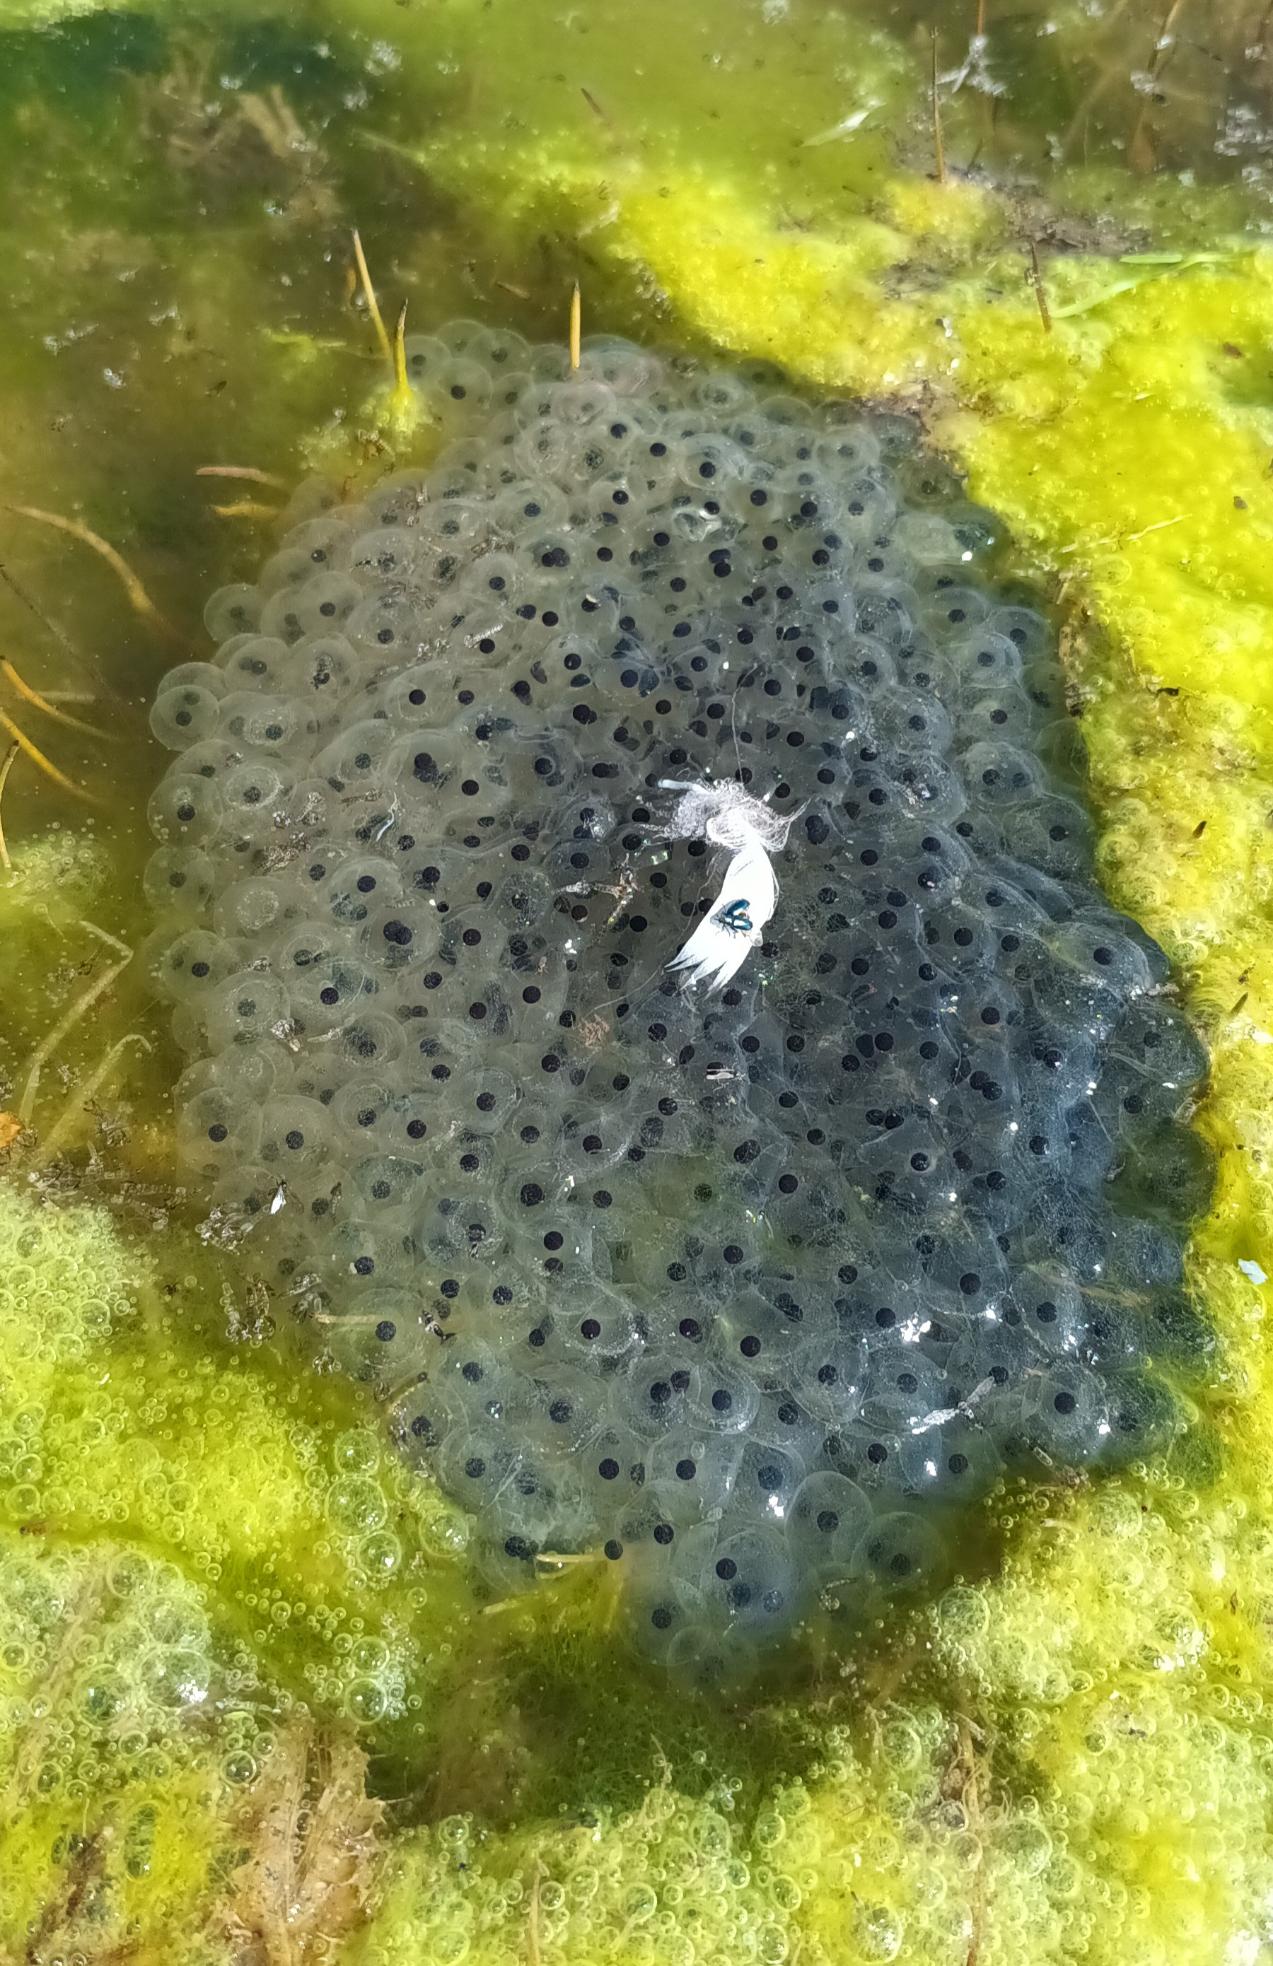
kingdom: Animalia
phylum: Chordata
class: Amphibia
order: Anura
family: Ranidae
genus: Rana
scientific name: Rana temporaria
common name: Butsnudet frø
